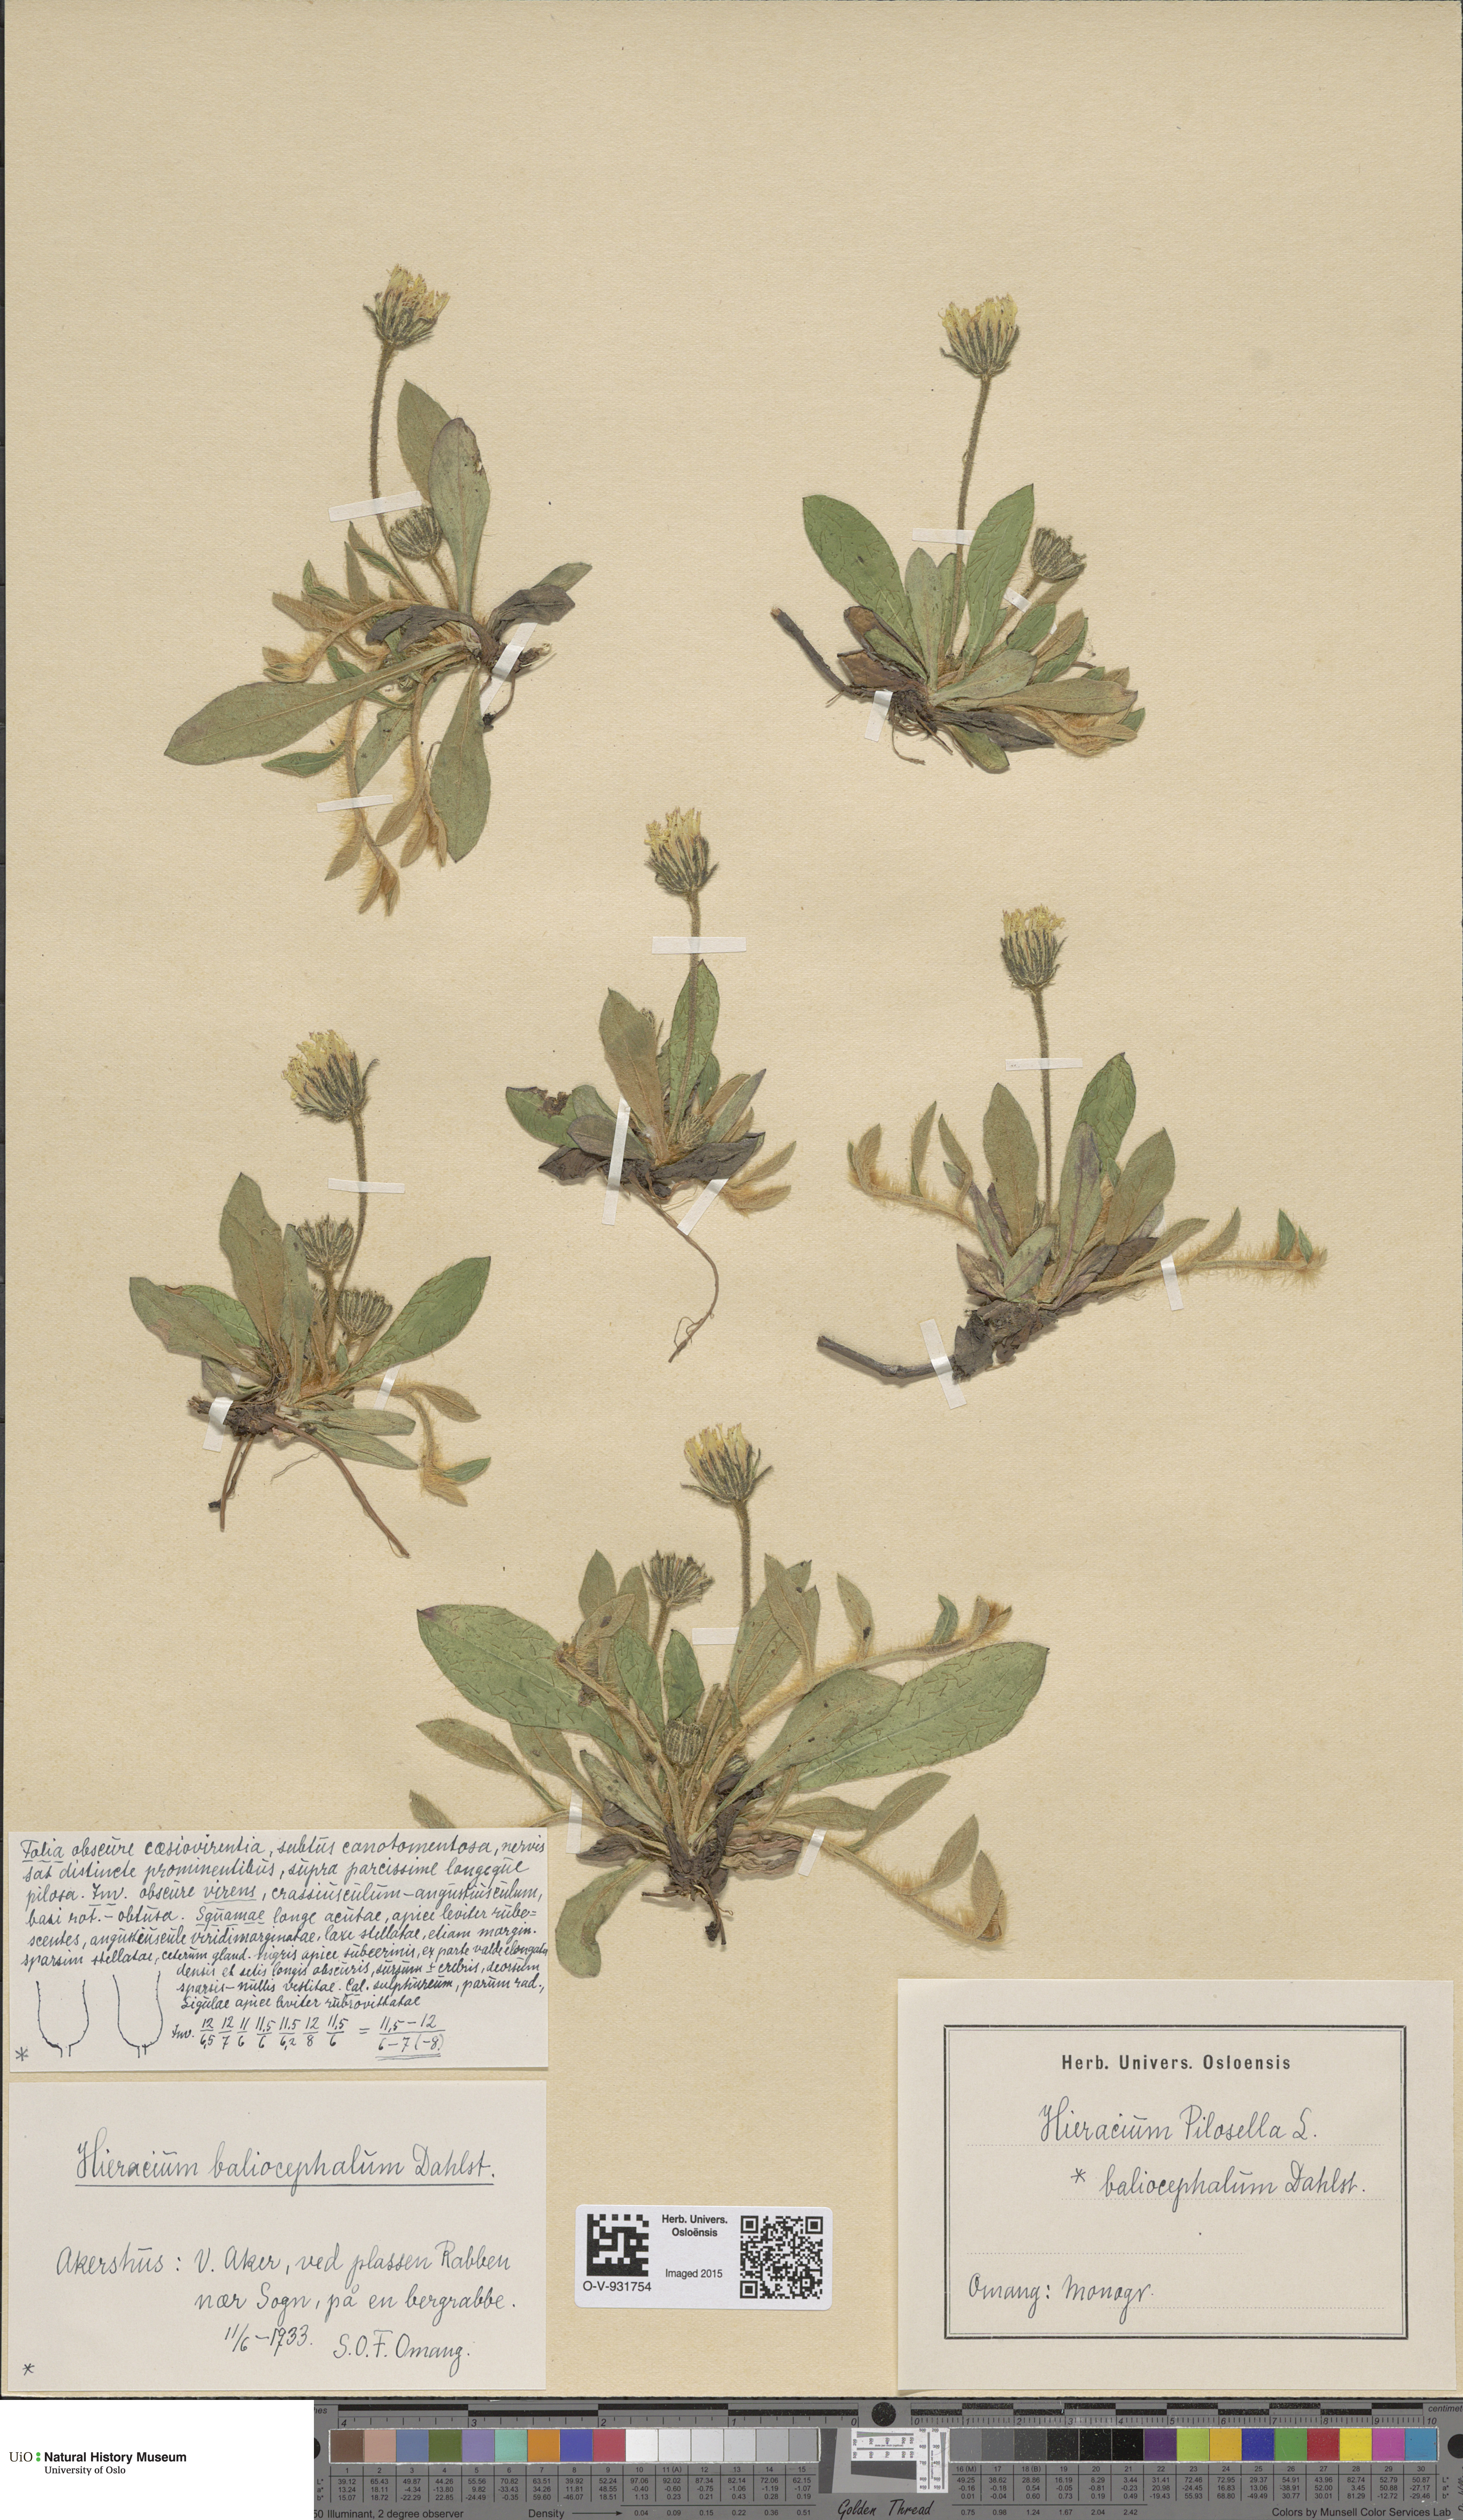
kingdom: Plantae
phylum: Tracheophyta
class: Magnoliopsida
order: Asterales
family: Asteraceae
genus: Pilosella
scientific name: Pilosella officinarum
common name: Mouse-ear hawkweed
